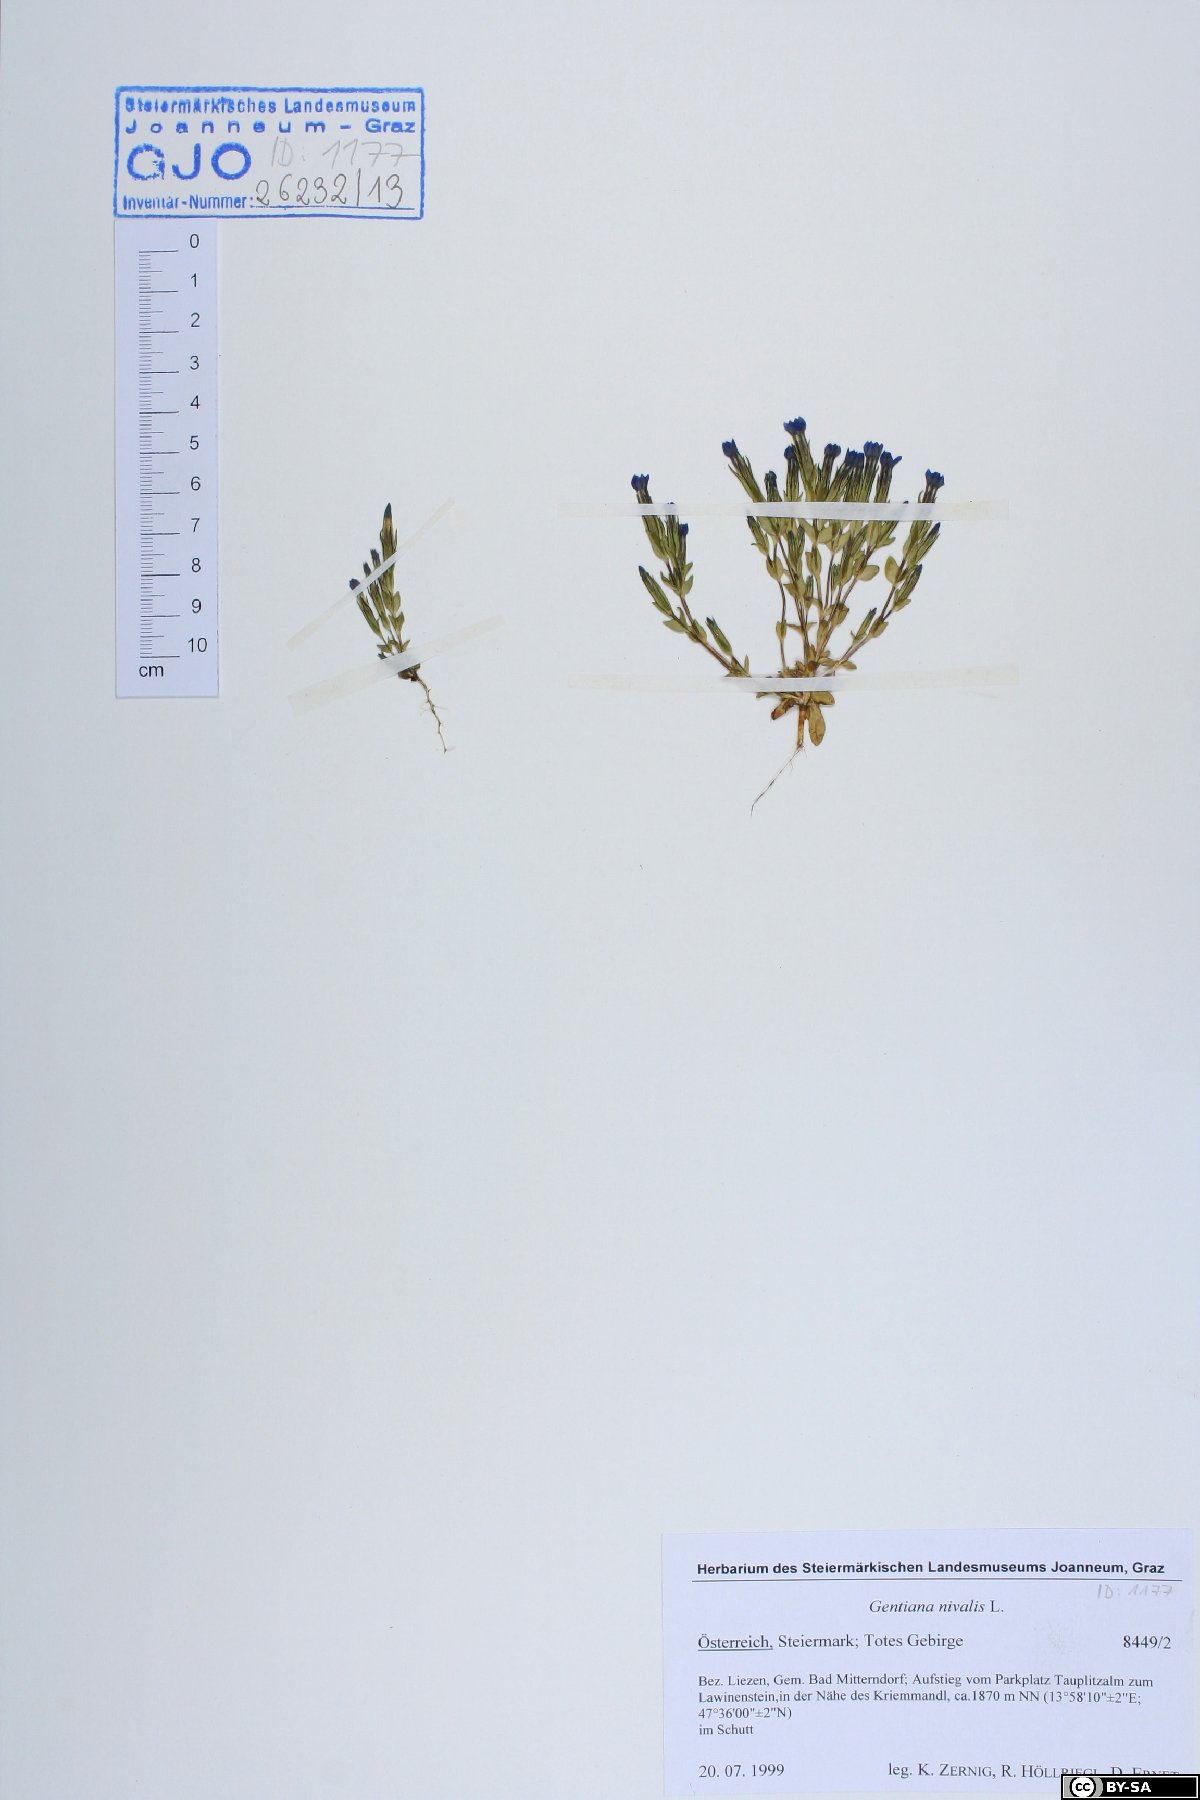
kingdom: Plantae
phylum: Tracheophyta
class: Magnoliopsida
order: Gentianales
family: Gentianaceae
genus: Gentiana
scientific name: Gentiana nivalis
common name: Alpine gentian
